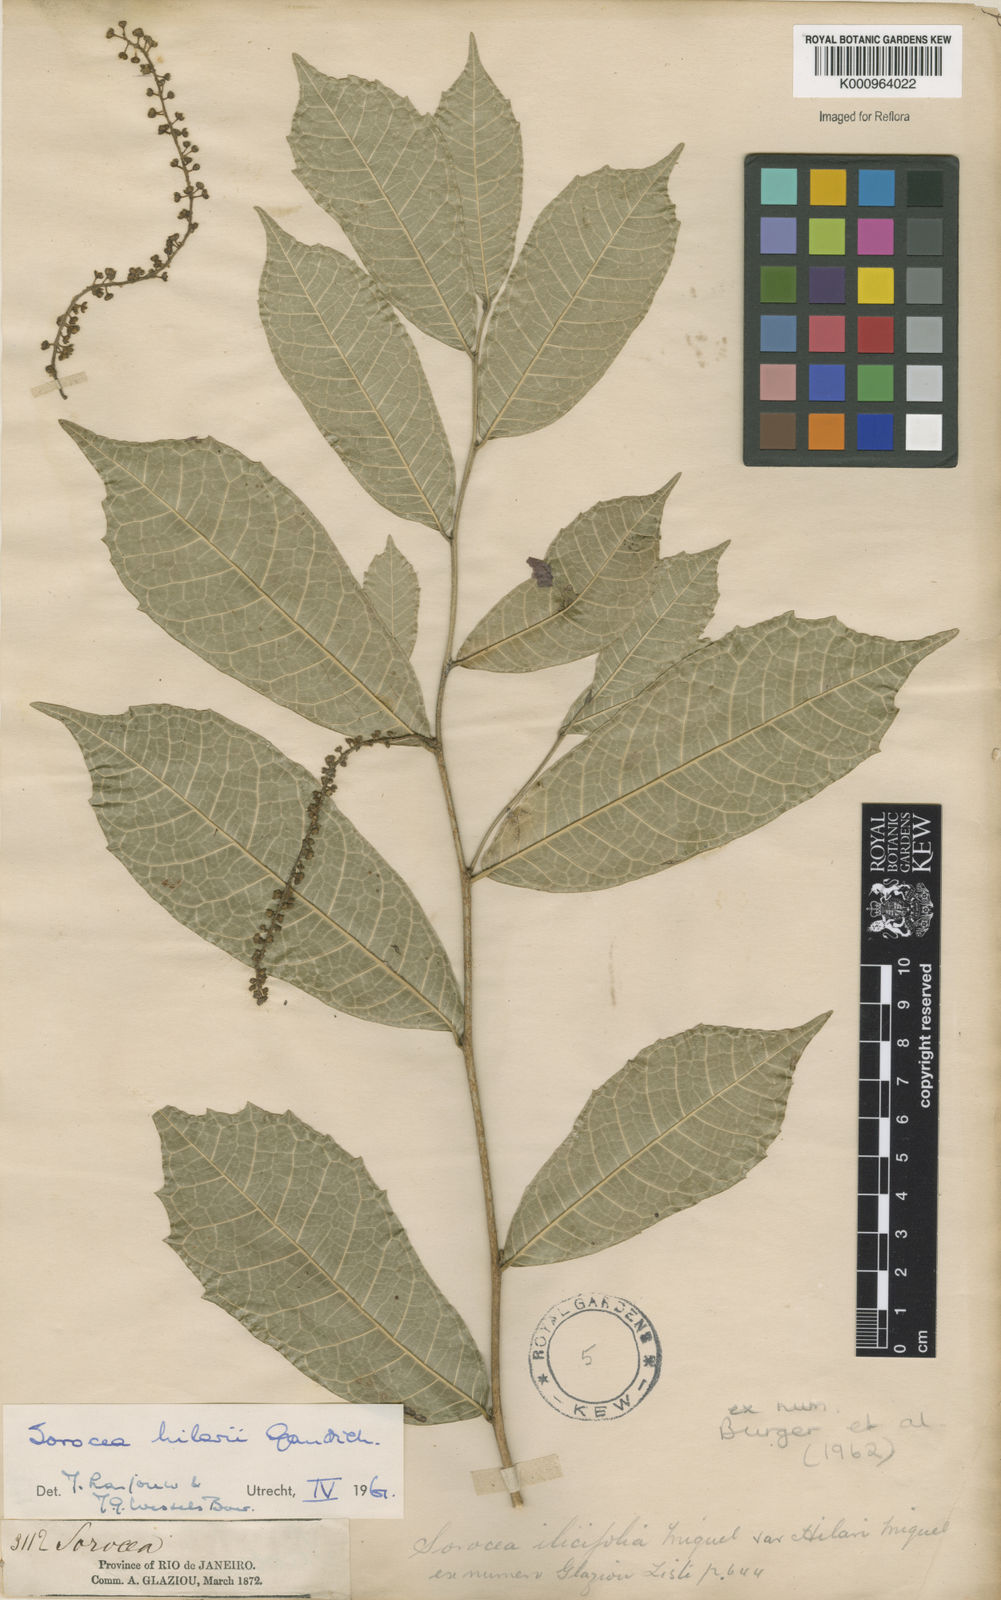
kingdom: Plantae
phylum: Tracheophyta
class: Magnoliopsida
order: Rosales
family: Moraceae
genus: Sorocea
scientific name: Sorocea hilarii
